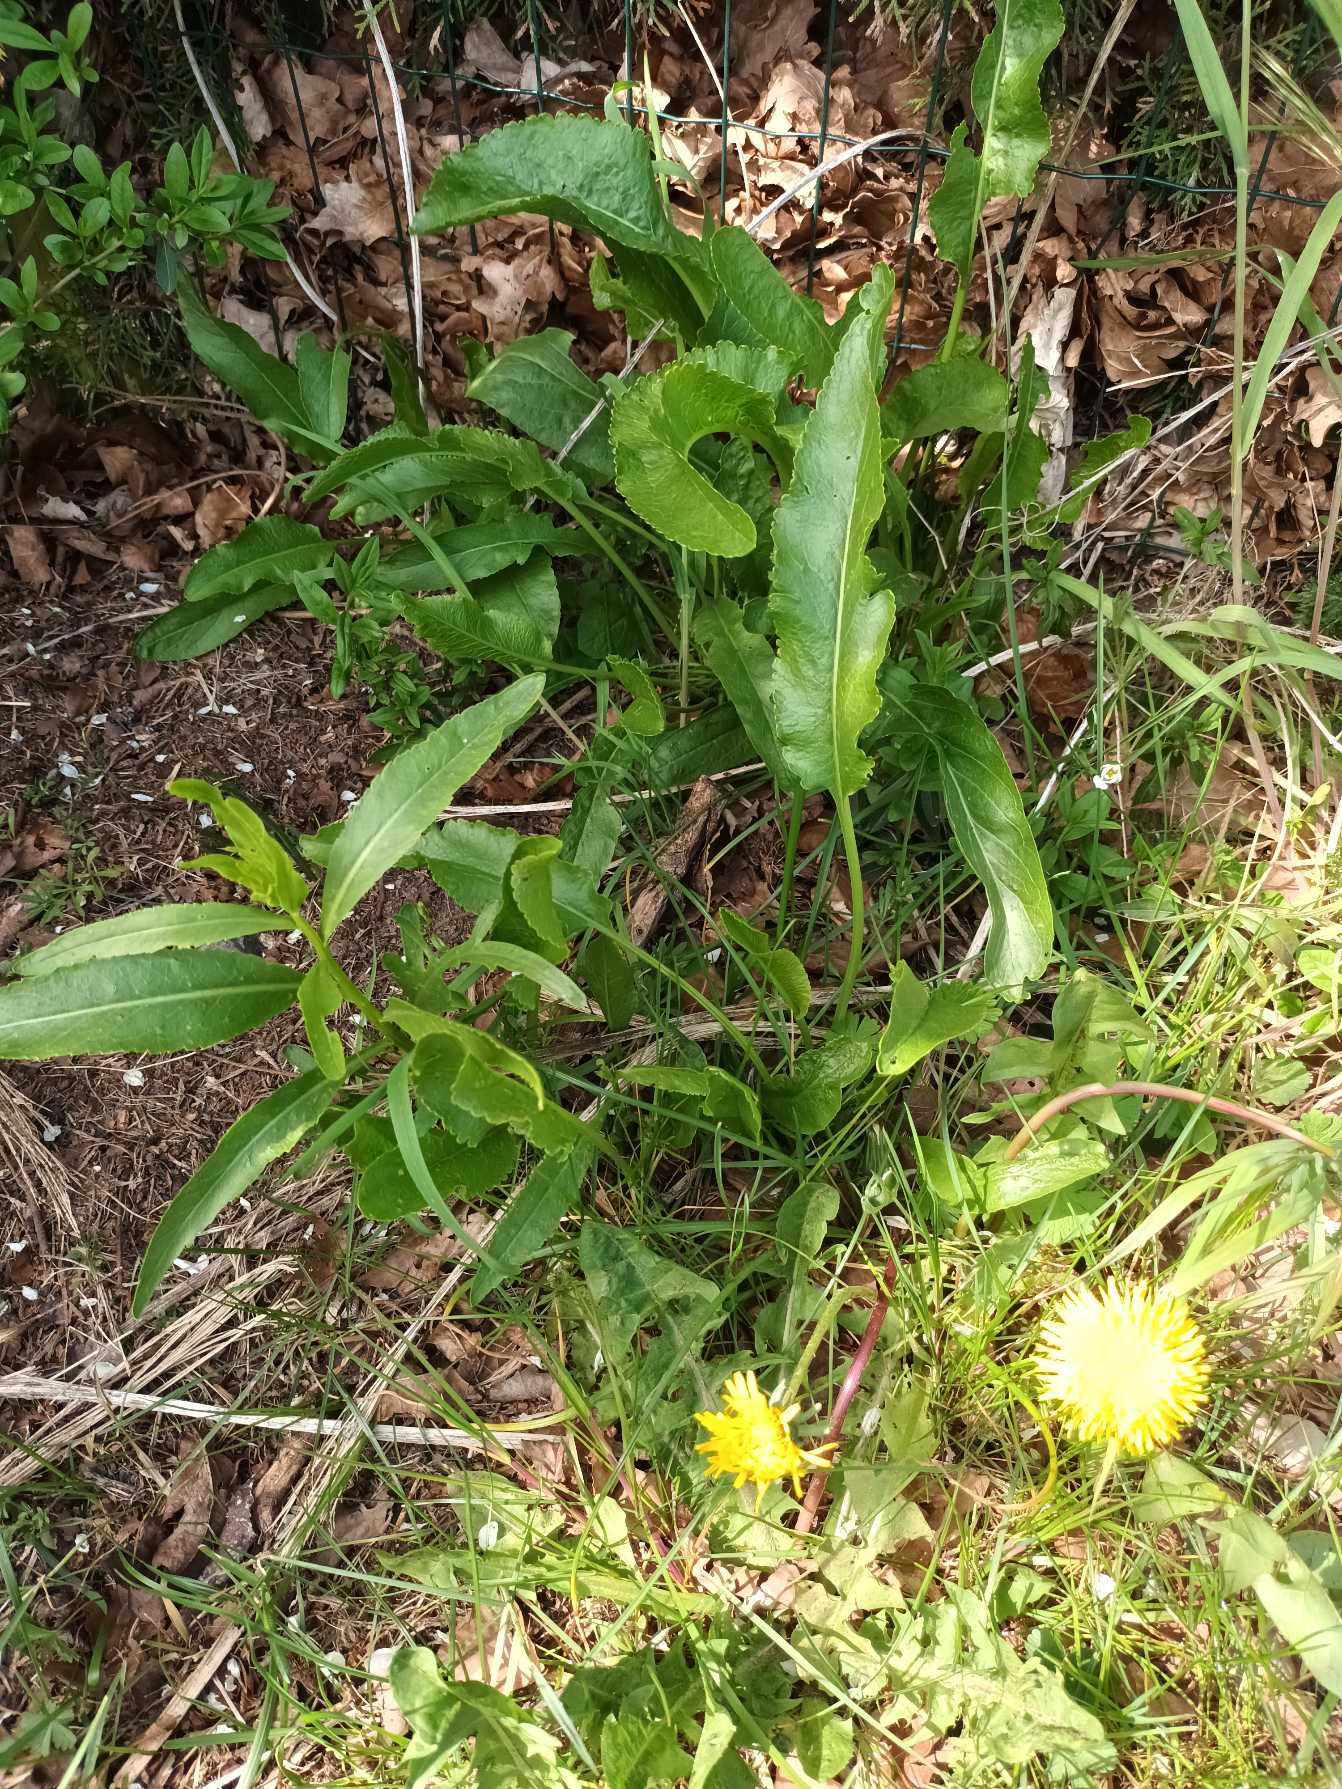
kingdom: Plantae
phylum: Tracheophyta
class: Magnoliopsida
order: Brassicales
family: Brassicaceae
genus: Armoracia
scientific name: Armoracia rusticana
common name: Peberrod
